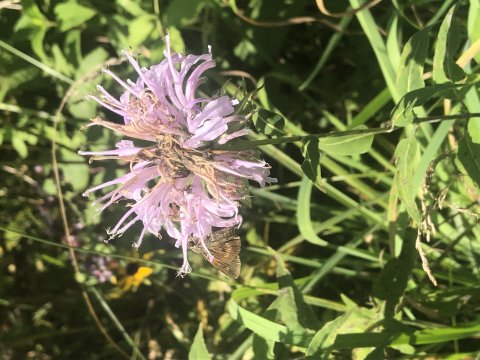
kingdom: Animalia
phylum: Arthropoda
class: Insecta
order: Lepidoptera
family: Hesperiidae
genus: Polites
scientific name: Polites egeremet
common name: Northern Broken-Dash
